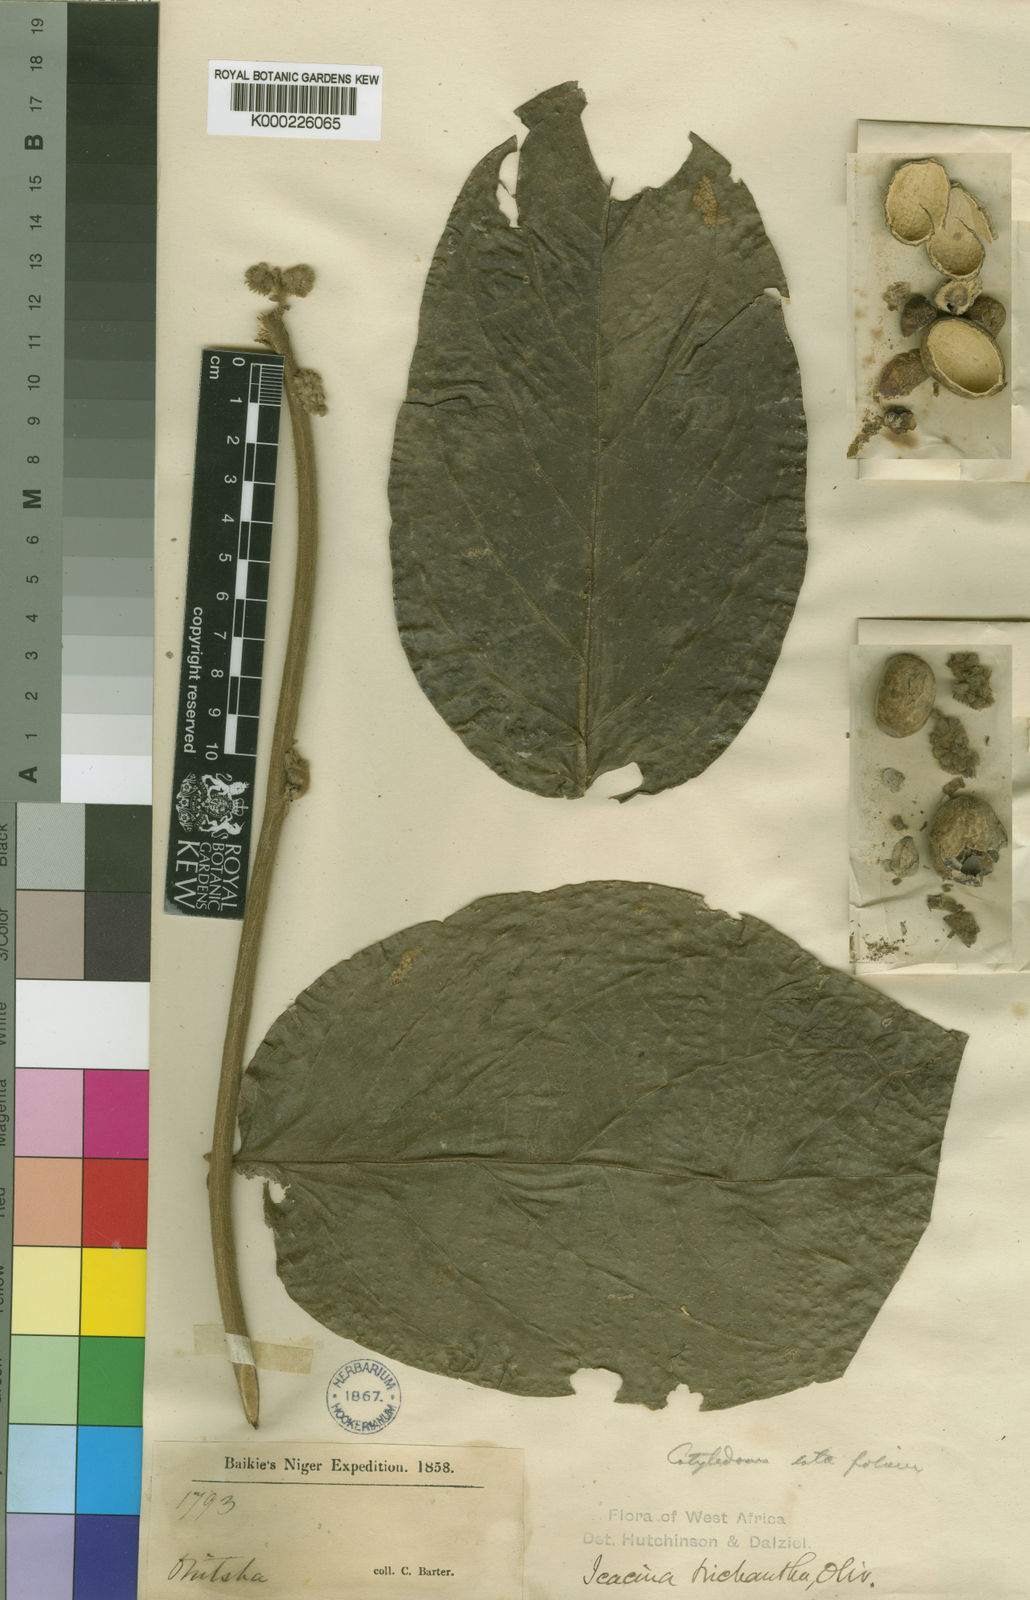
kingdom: Plantae
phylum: Tracheophyta
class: Magnoliopsida
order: Icacinales
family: Icacinaceae
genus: Icacina
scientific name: Icacina trichantha
